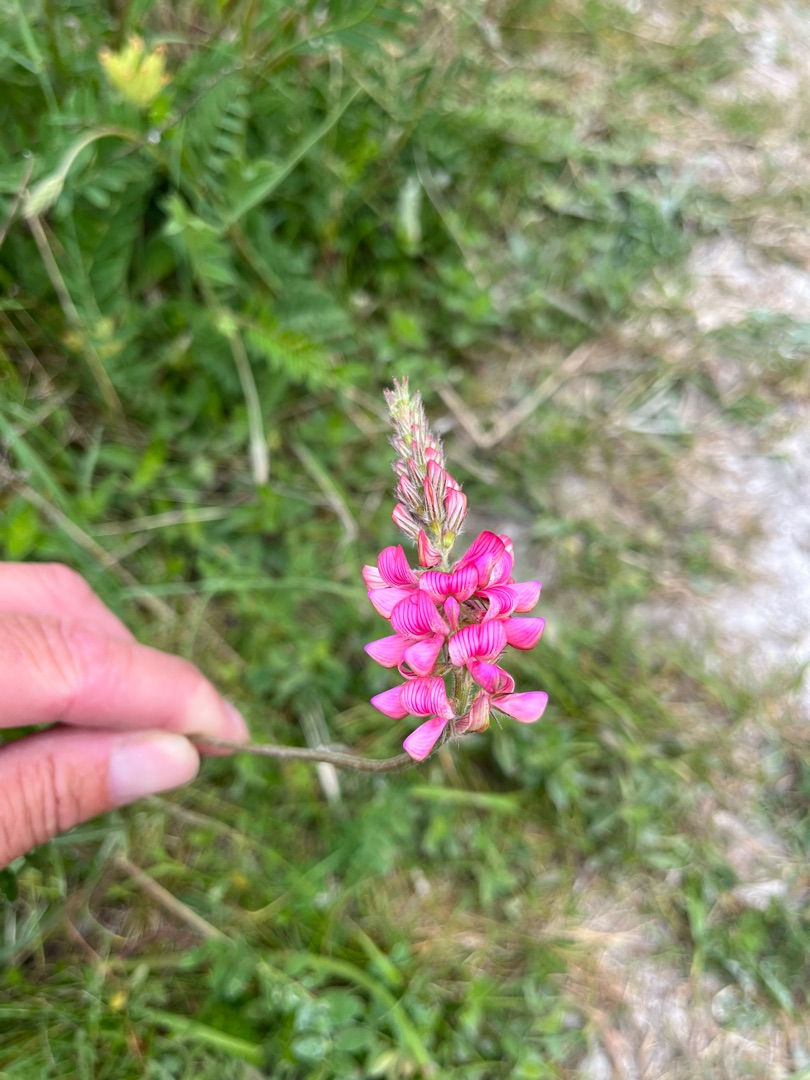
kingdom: Plantae
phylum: Tracheophyta
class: Magnoliopsida
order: Fabales
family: Fabaceae
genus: Onobrychis
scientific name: Onobrychis viciifolia
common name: Esparsette
